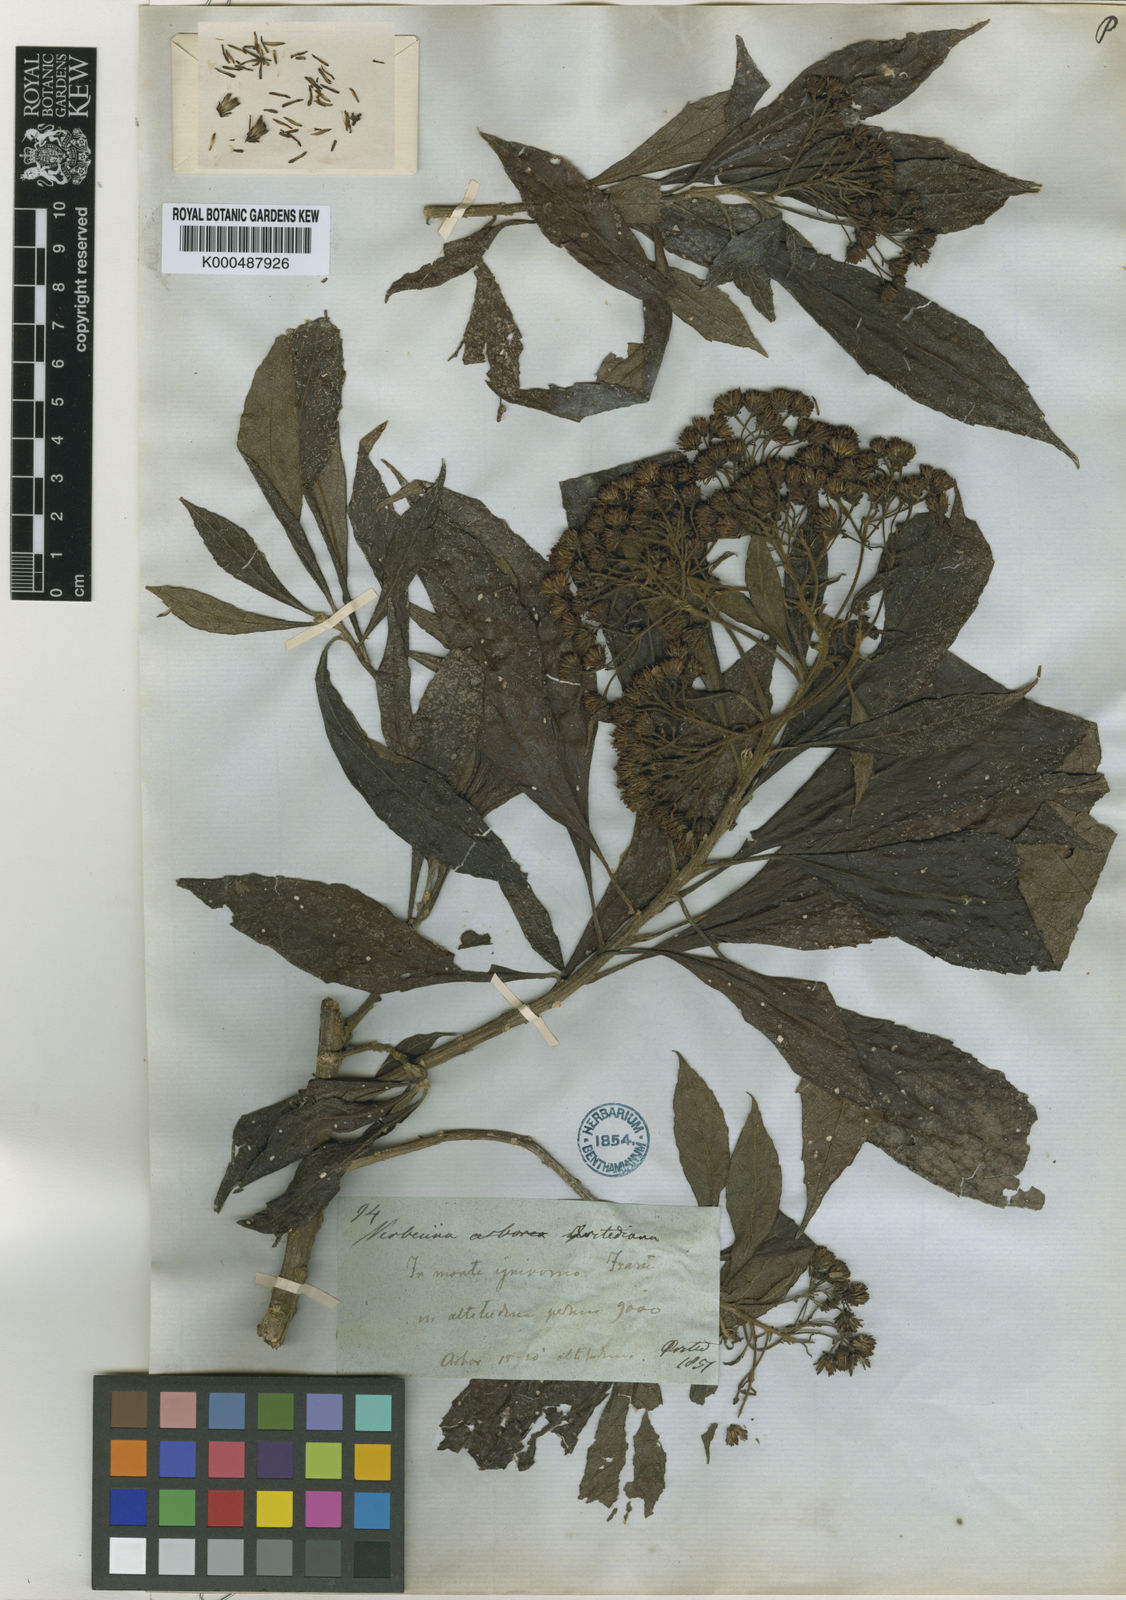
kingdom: Plantae
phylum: Tracheophyta
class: Magnoliopsida
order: Asterales
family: Asteraceae
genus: Verbesina
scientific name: Verbesina arborea
